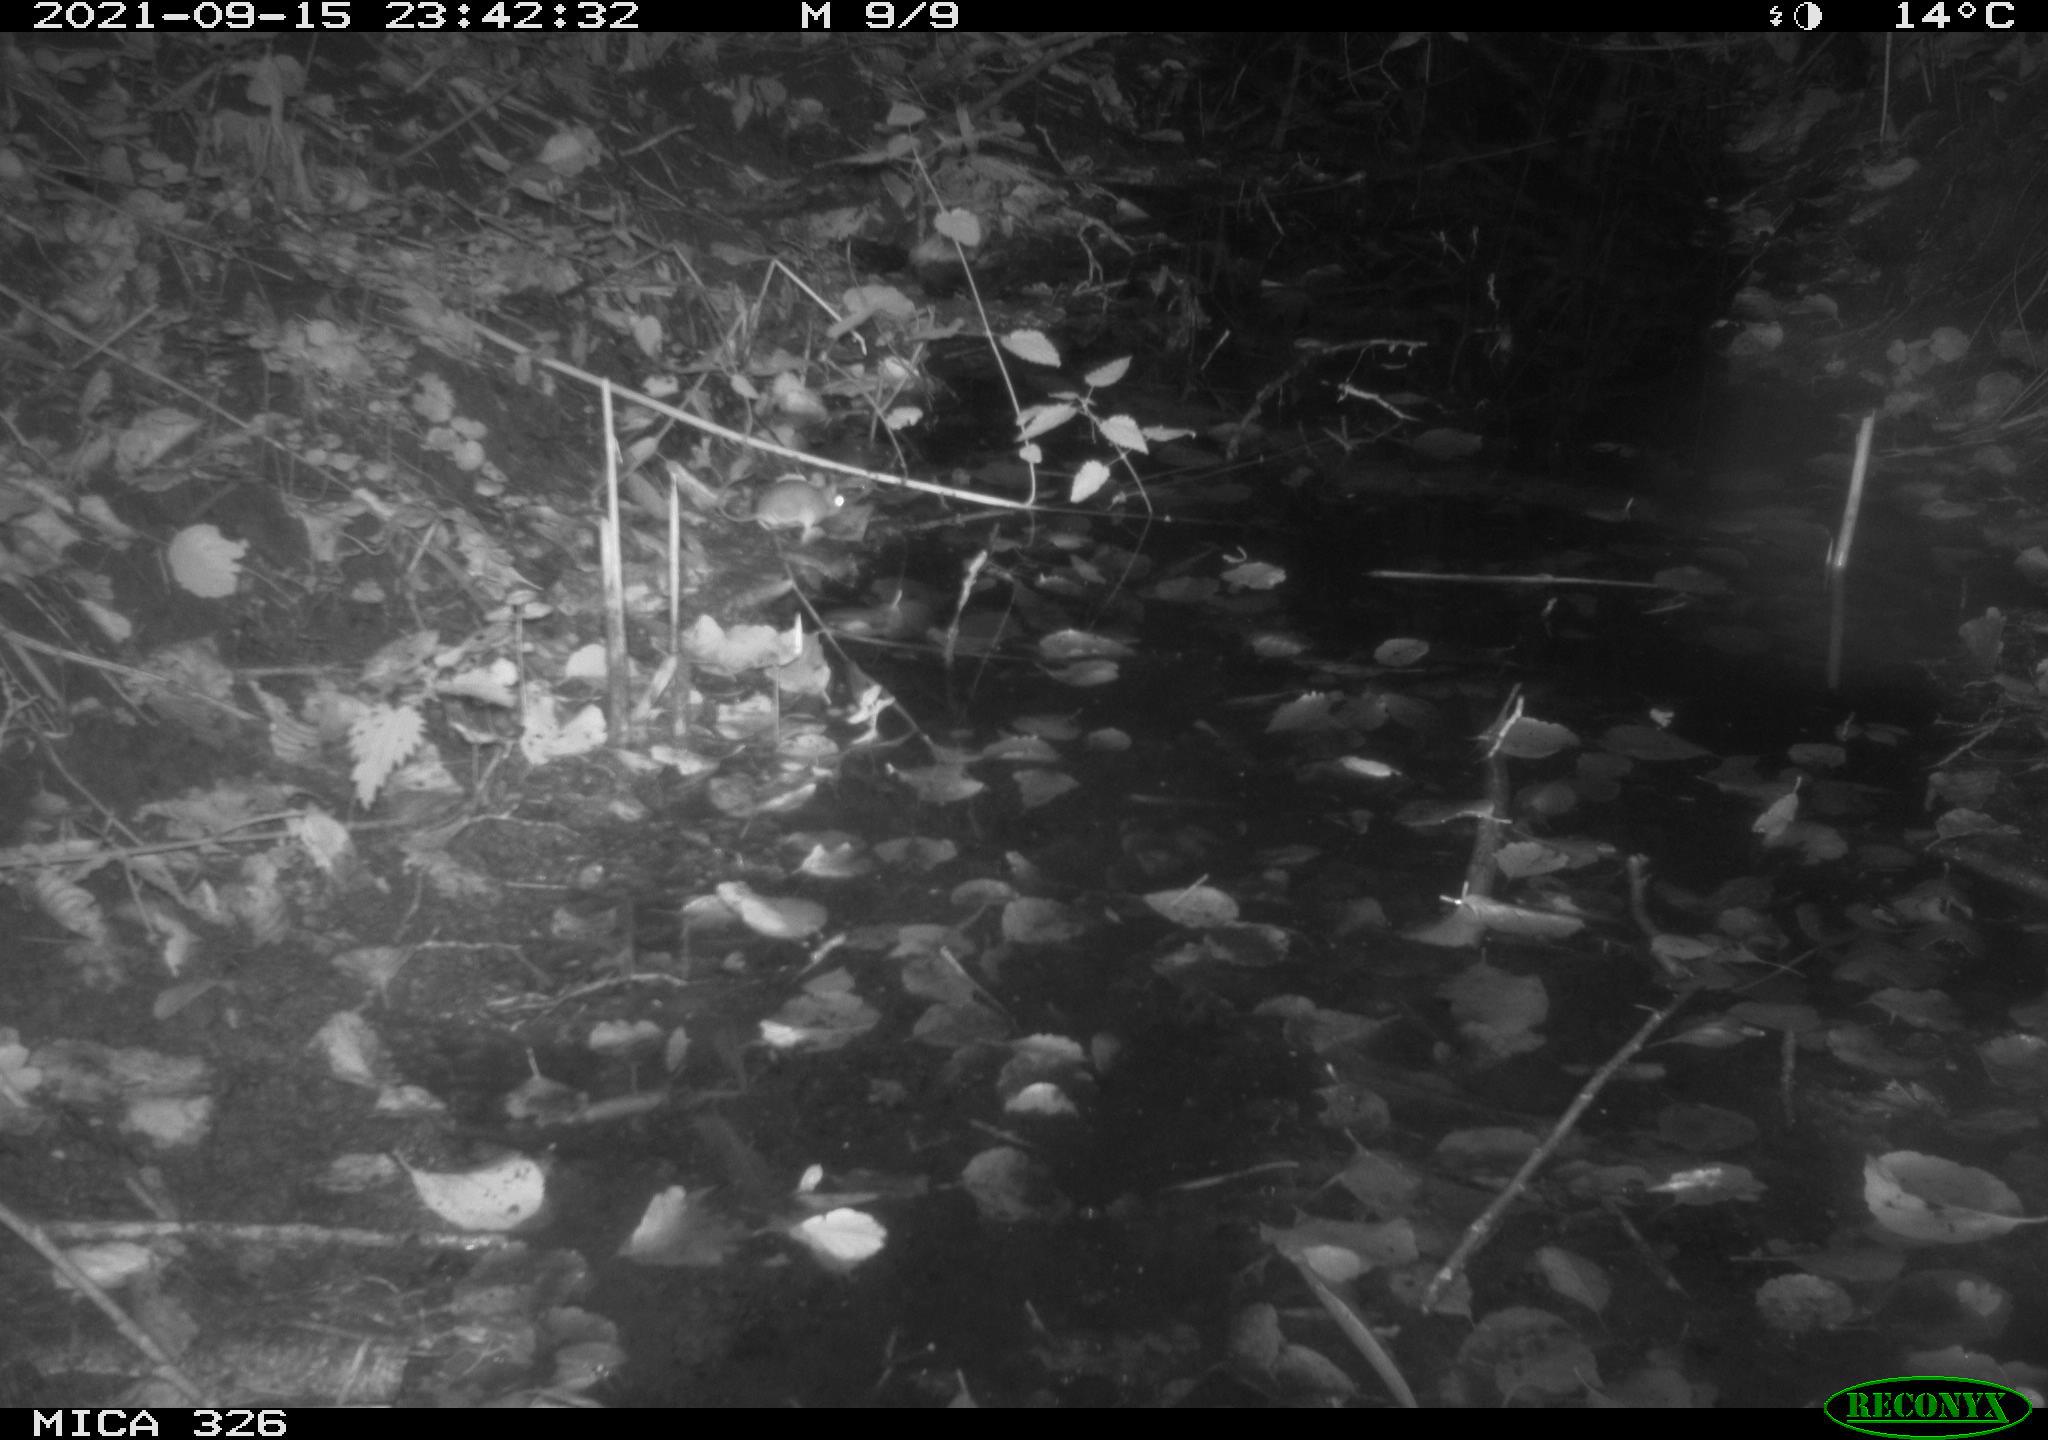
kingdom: Animalia
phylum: Chordata
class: Mammalia
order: Rodentia
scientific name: Rodentia
